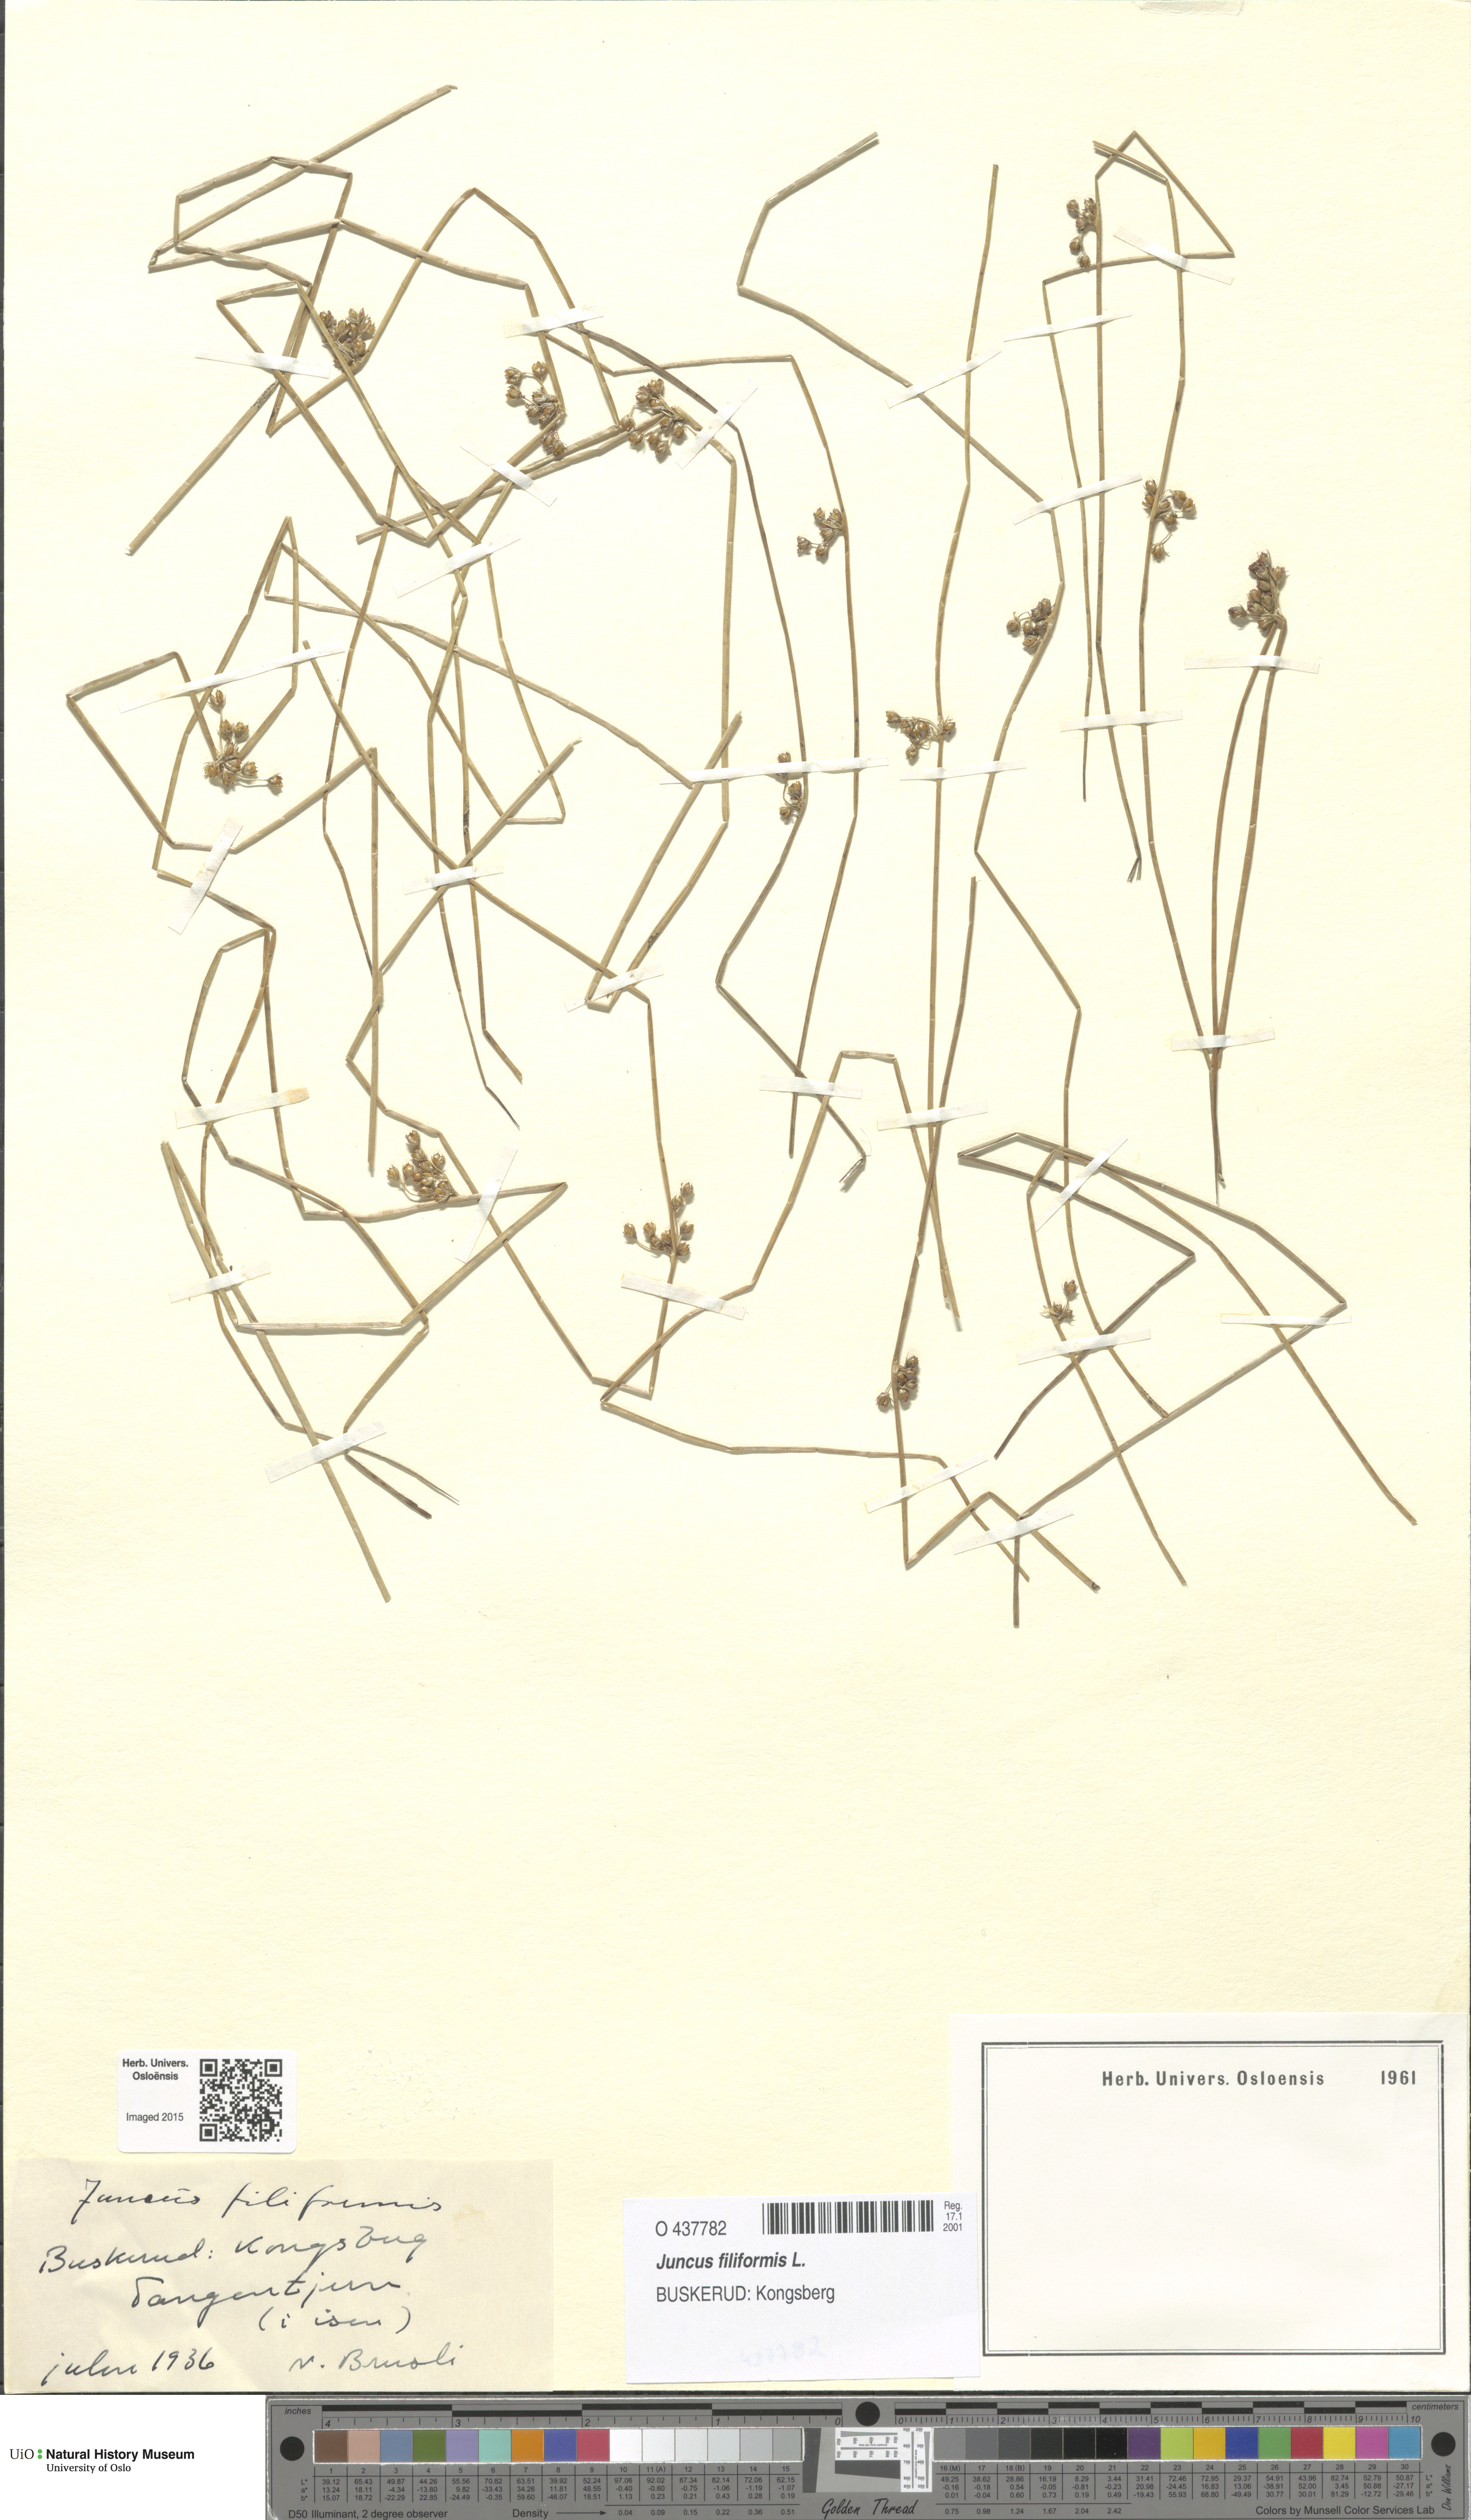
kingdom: Plantae
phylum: Tracheophyta
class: Liliopsida
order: Poales
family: Juncaceae
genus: Juncus
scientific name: Juncus filiformis
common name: Thread rush
